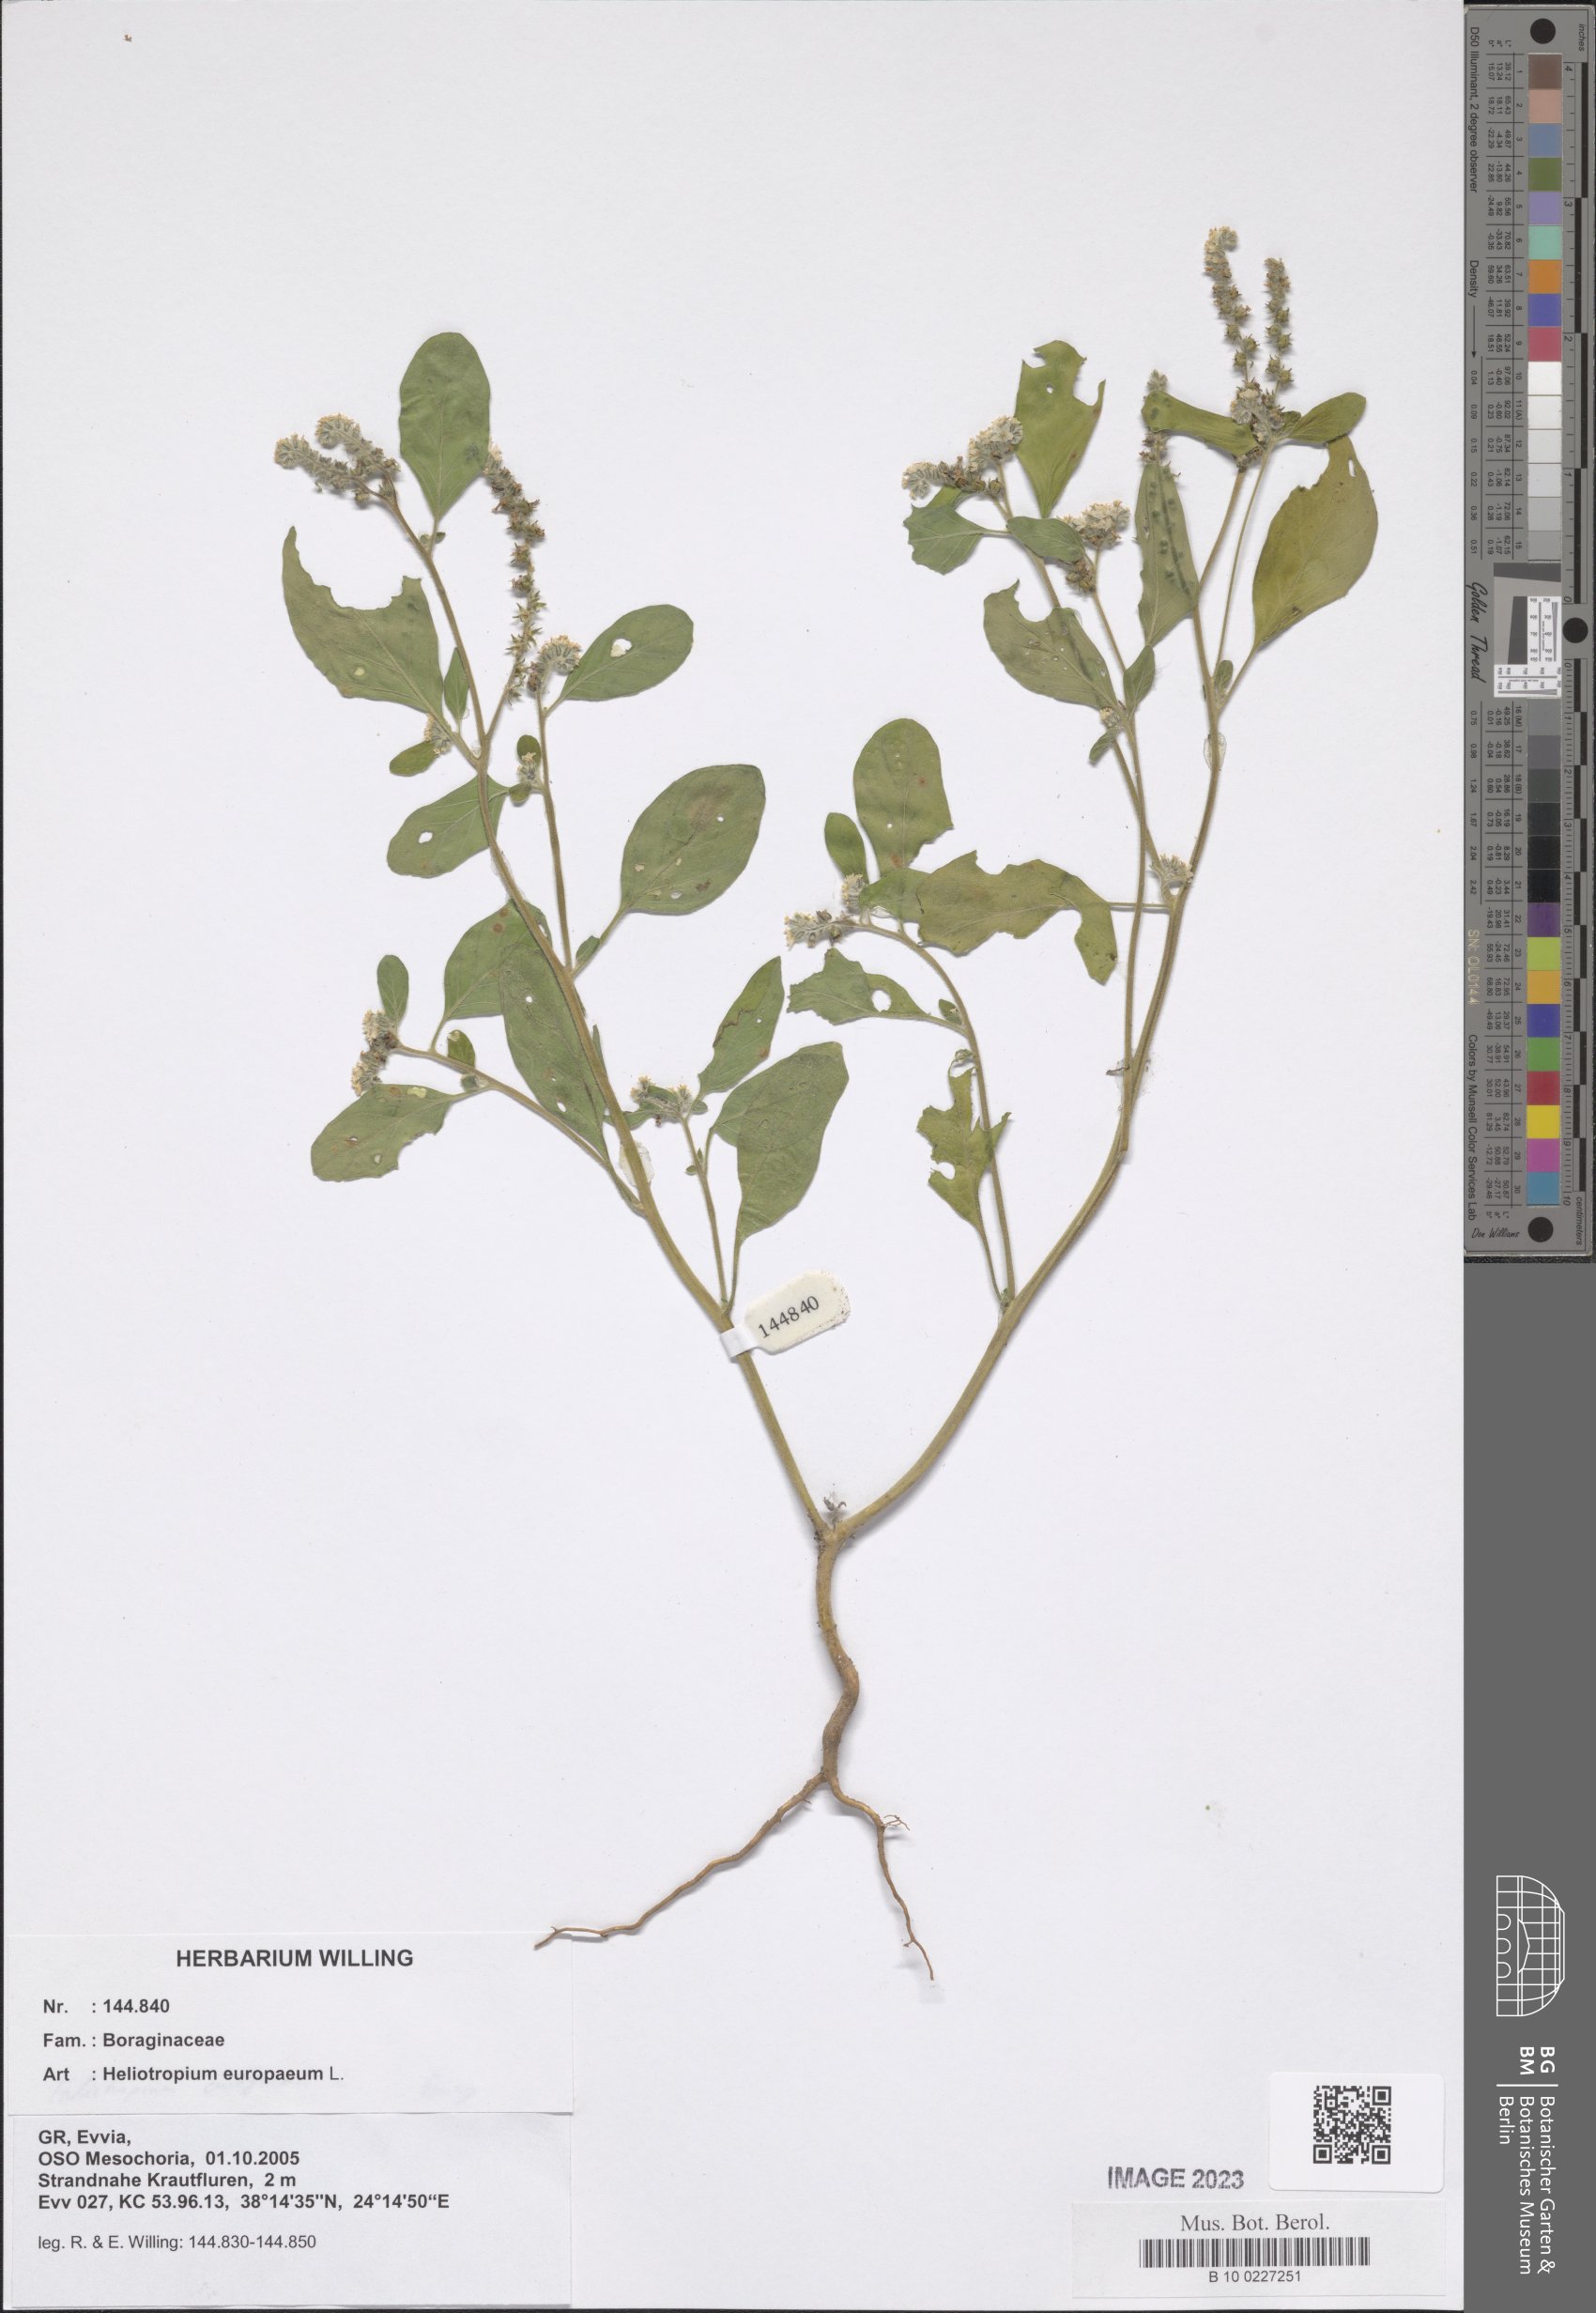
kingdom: Plantae
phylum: Tracheophyta
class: Magnoliopsida
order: Boraginales
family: Heliotropiaceae
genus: Heliotropium
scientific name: Heliotropium europaeum
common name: European heliotrope
